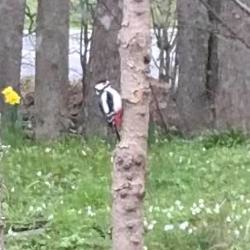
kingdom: Animalia
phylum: Chordata
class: Aves
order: Piciformes
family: Picidae
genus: Dendrocopos
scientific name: Dendrocopos major
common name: Stor flagspætte
